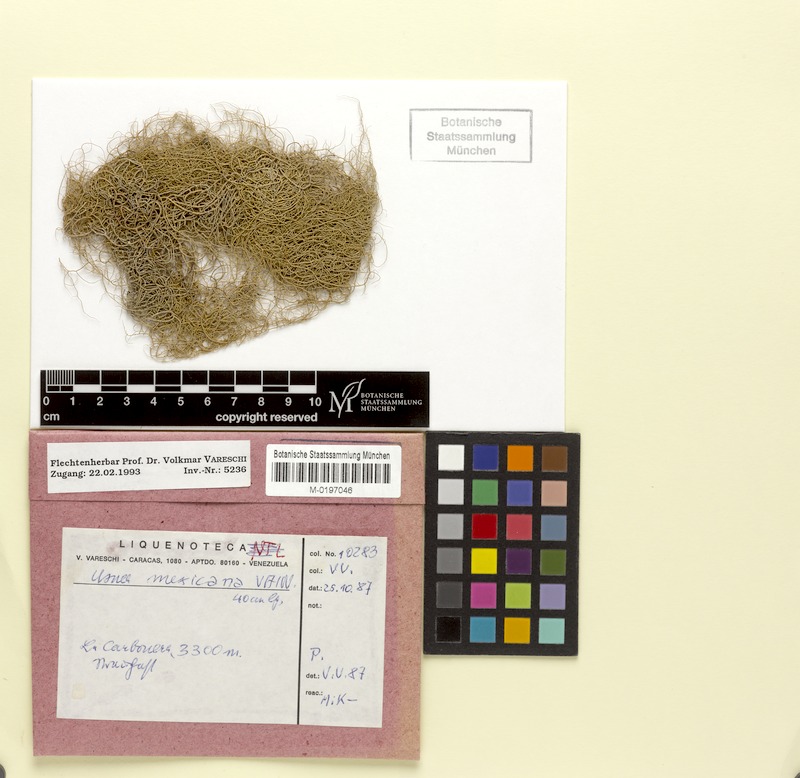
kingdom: Fungi
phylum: Ascomycota
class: Lecanoromycetes
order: Lecanorales
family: Parmeliaceae
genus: Usnea
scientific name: Usnea
